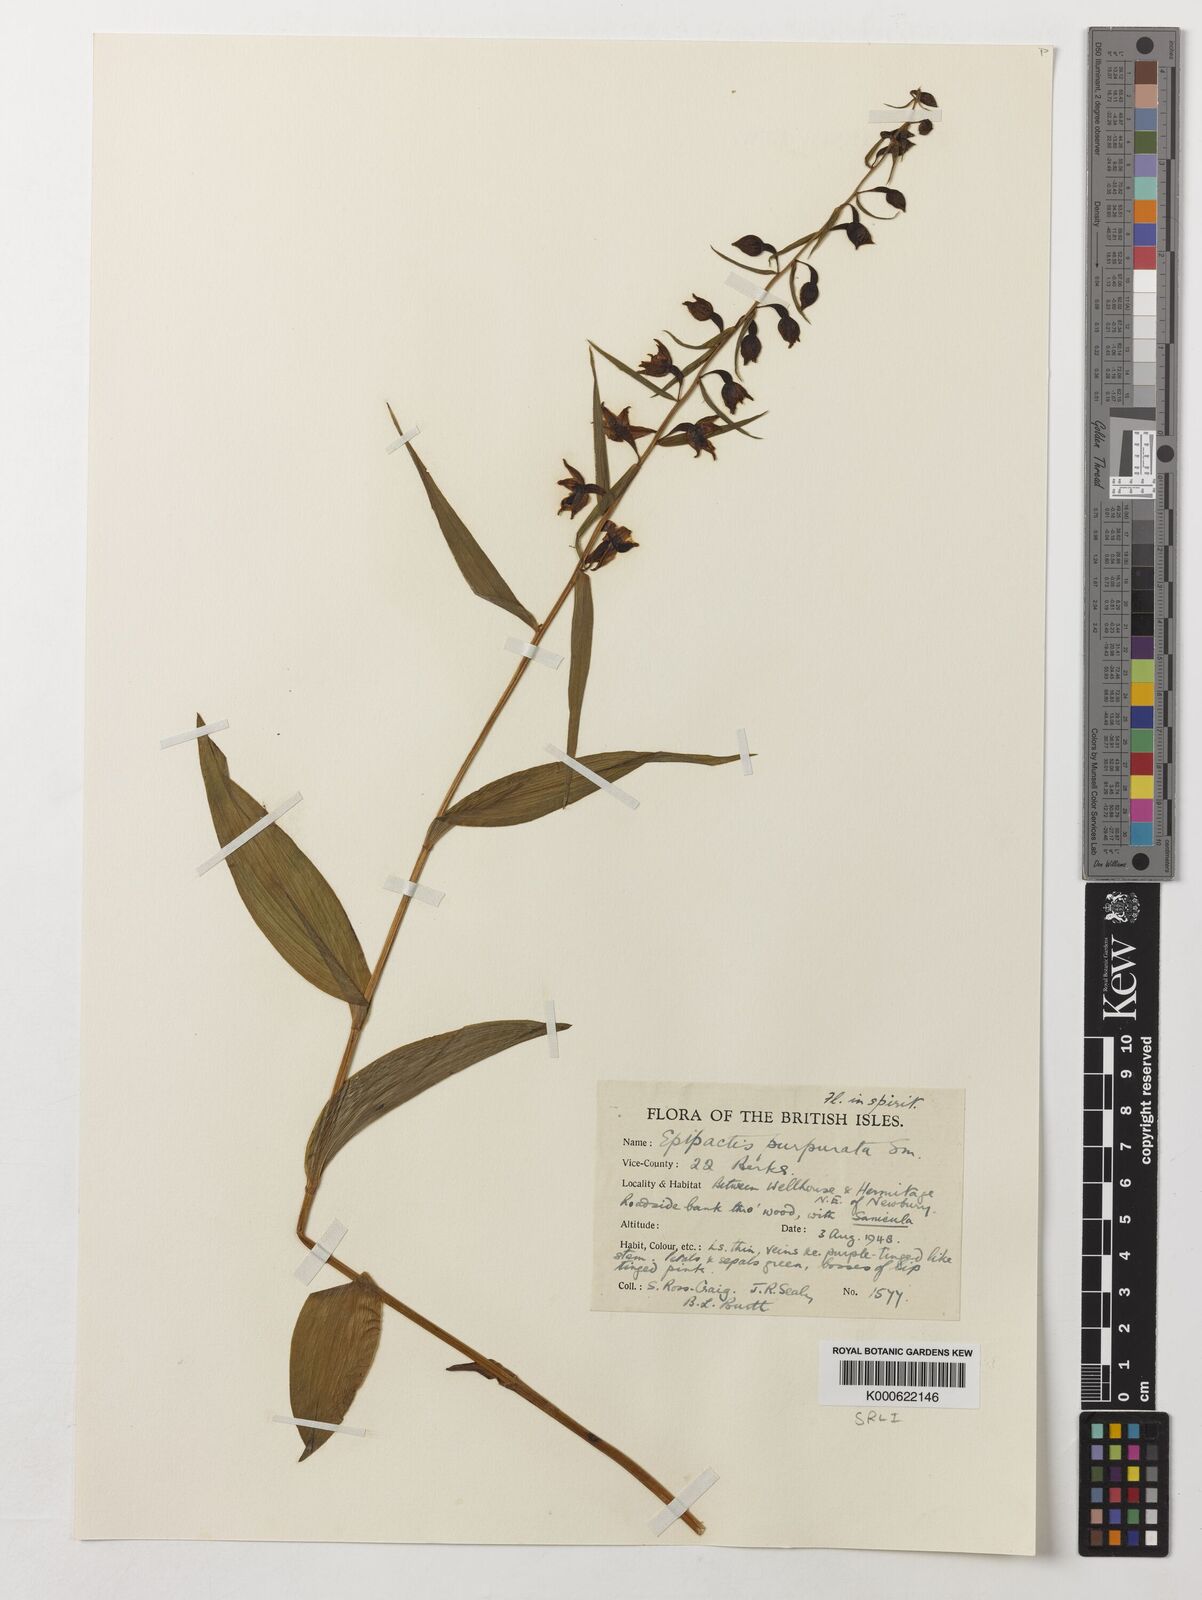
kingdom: Plantae
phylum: Tracheophyta
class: Liliopsida
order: Asparagales
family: Orchidaceae
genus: Epipactis
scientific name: Epipactis purpurata
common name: Violet helleborine
